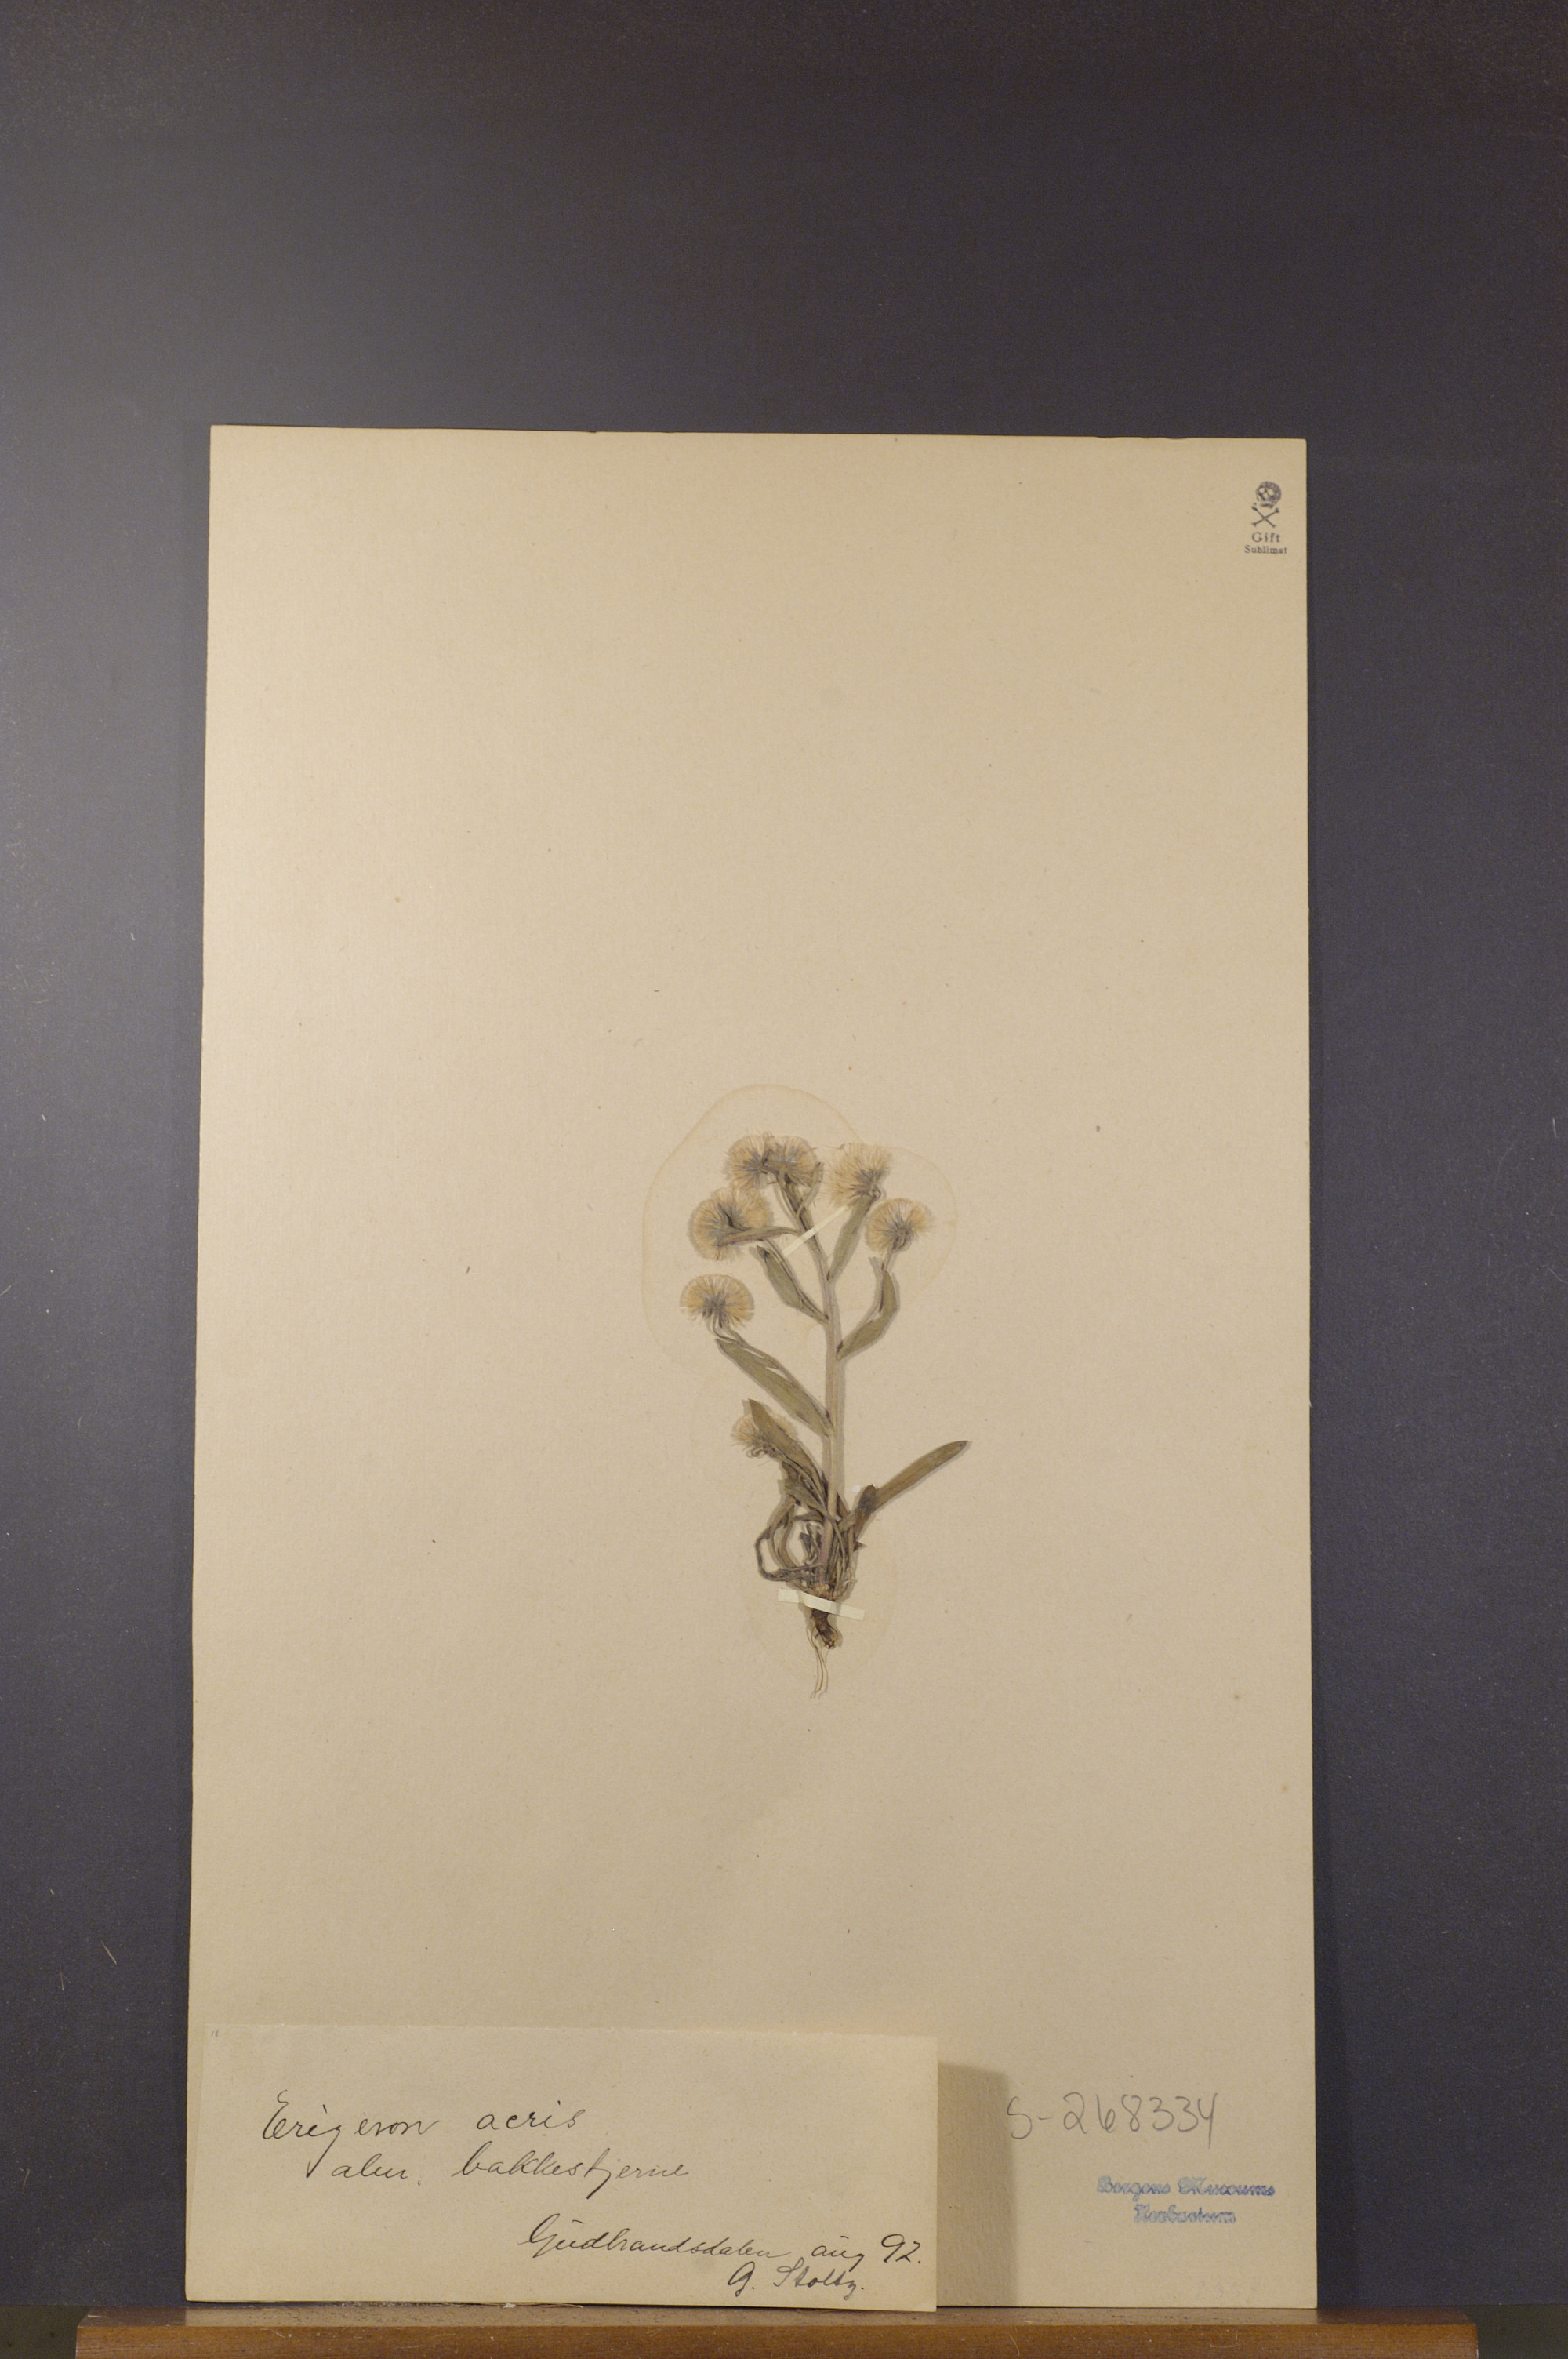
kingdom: Plantae
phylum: Tracheophyta
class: Magnoliopsida
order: Asterales
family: Asteraceae
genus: Erigeron
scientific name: Erigeron acris
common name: Blue fleabane
